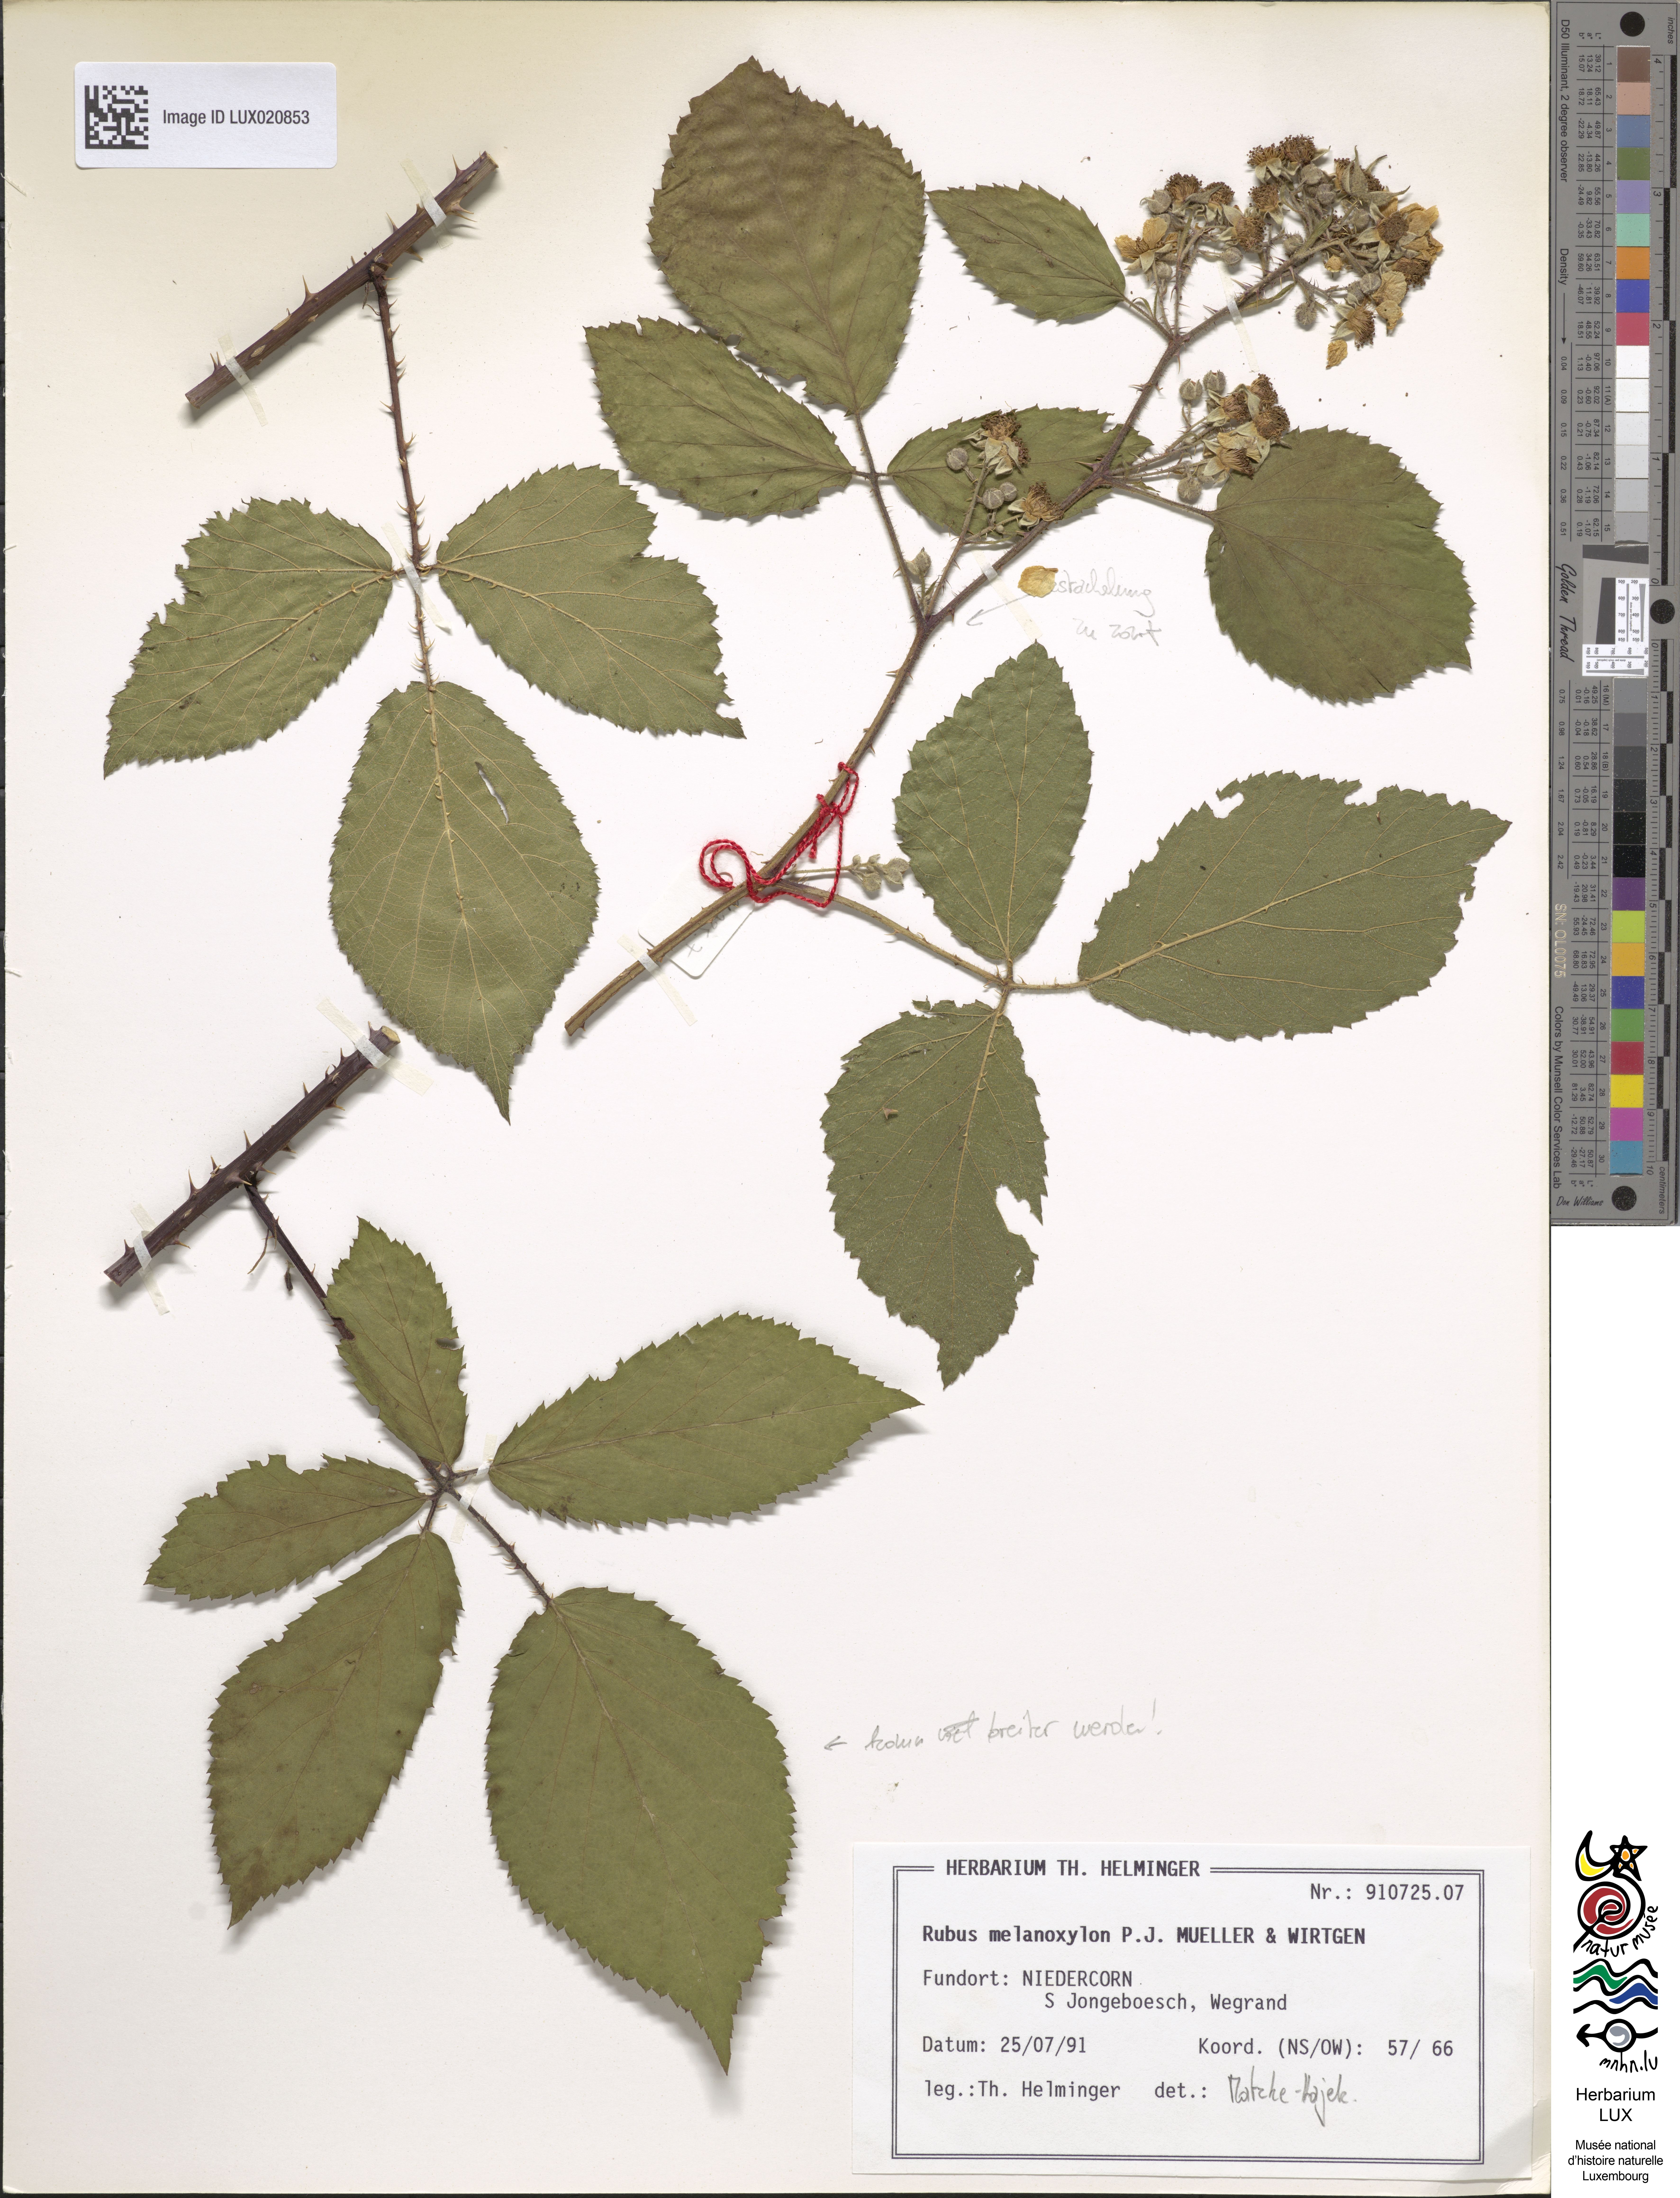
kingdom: Plantae
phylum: Tracheophyta
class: Magnoliopsida
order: Rosales
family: Rosaceae
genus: Rubus
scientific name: Rubus melanoxylon
